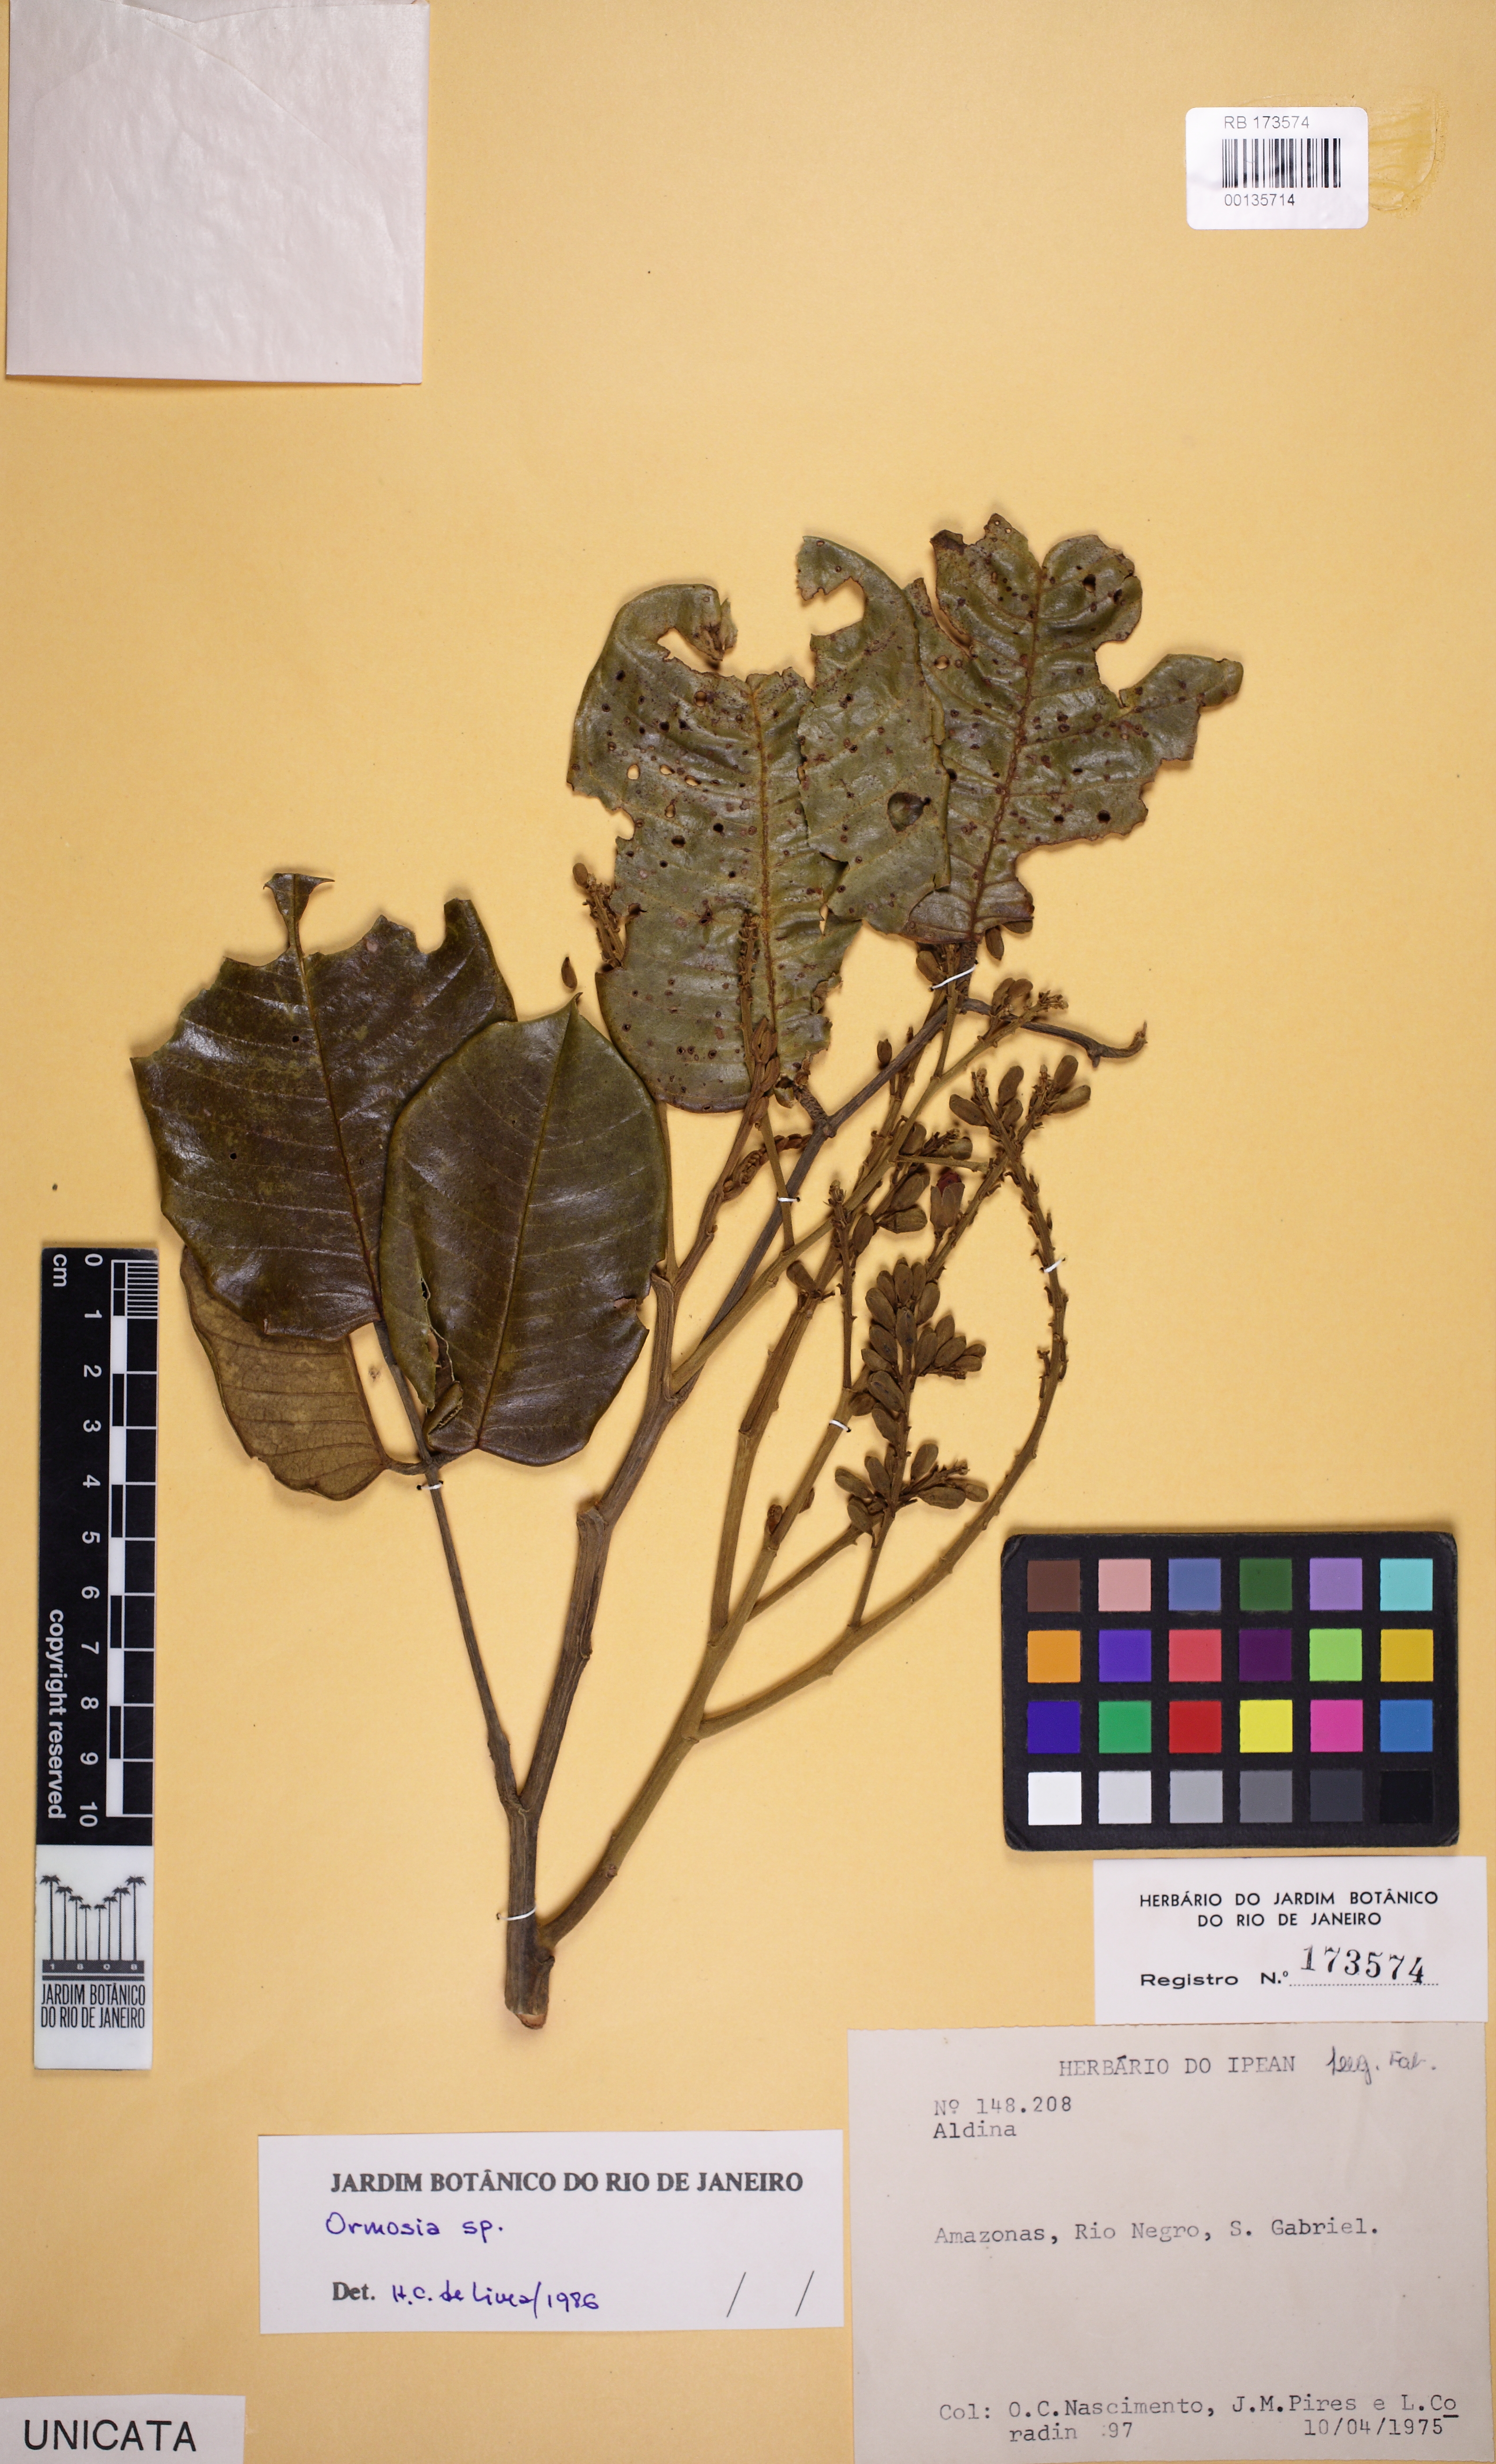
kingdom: Plantae
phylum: Tracheophyta
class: Magnoliopsida
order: Fabales
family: Fabaceae
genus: Ormosia
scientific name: Ormosia
